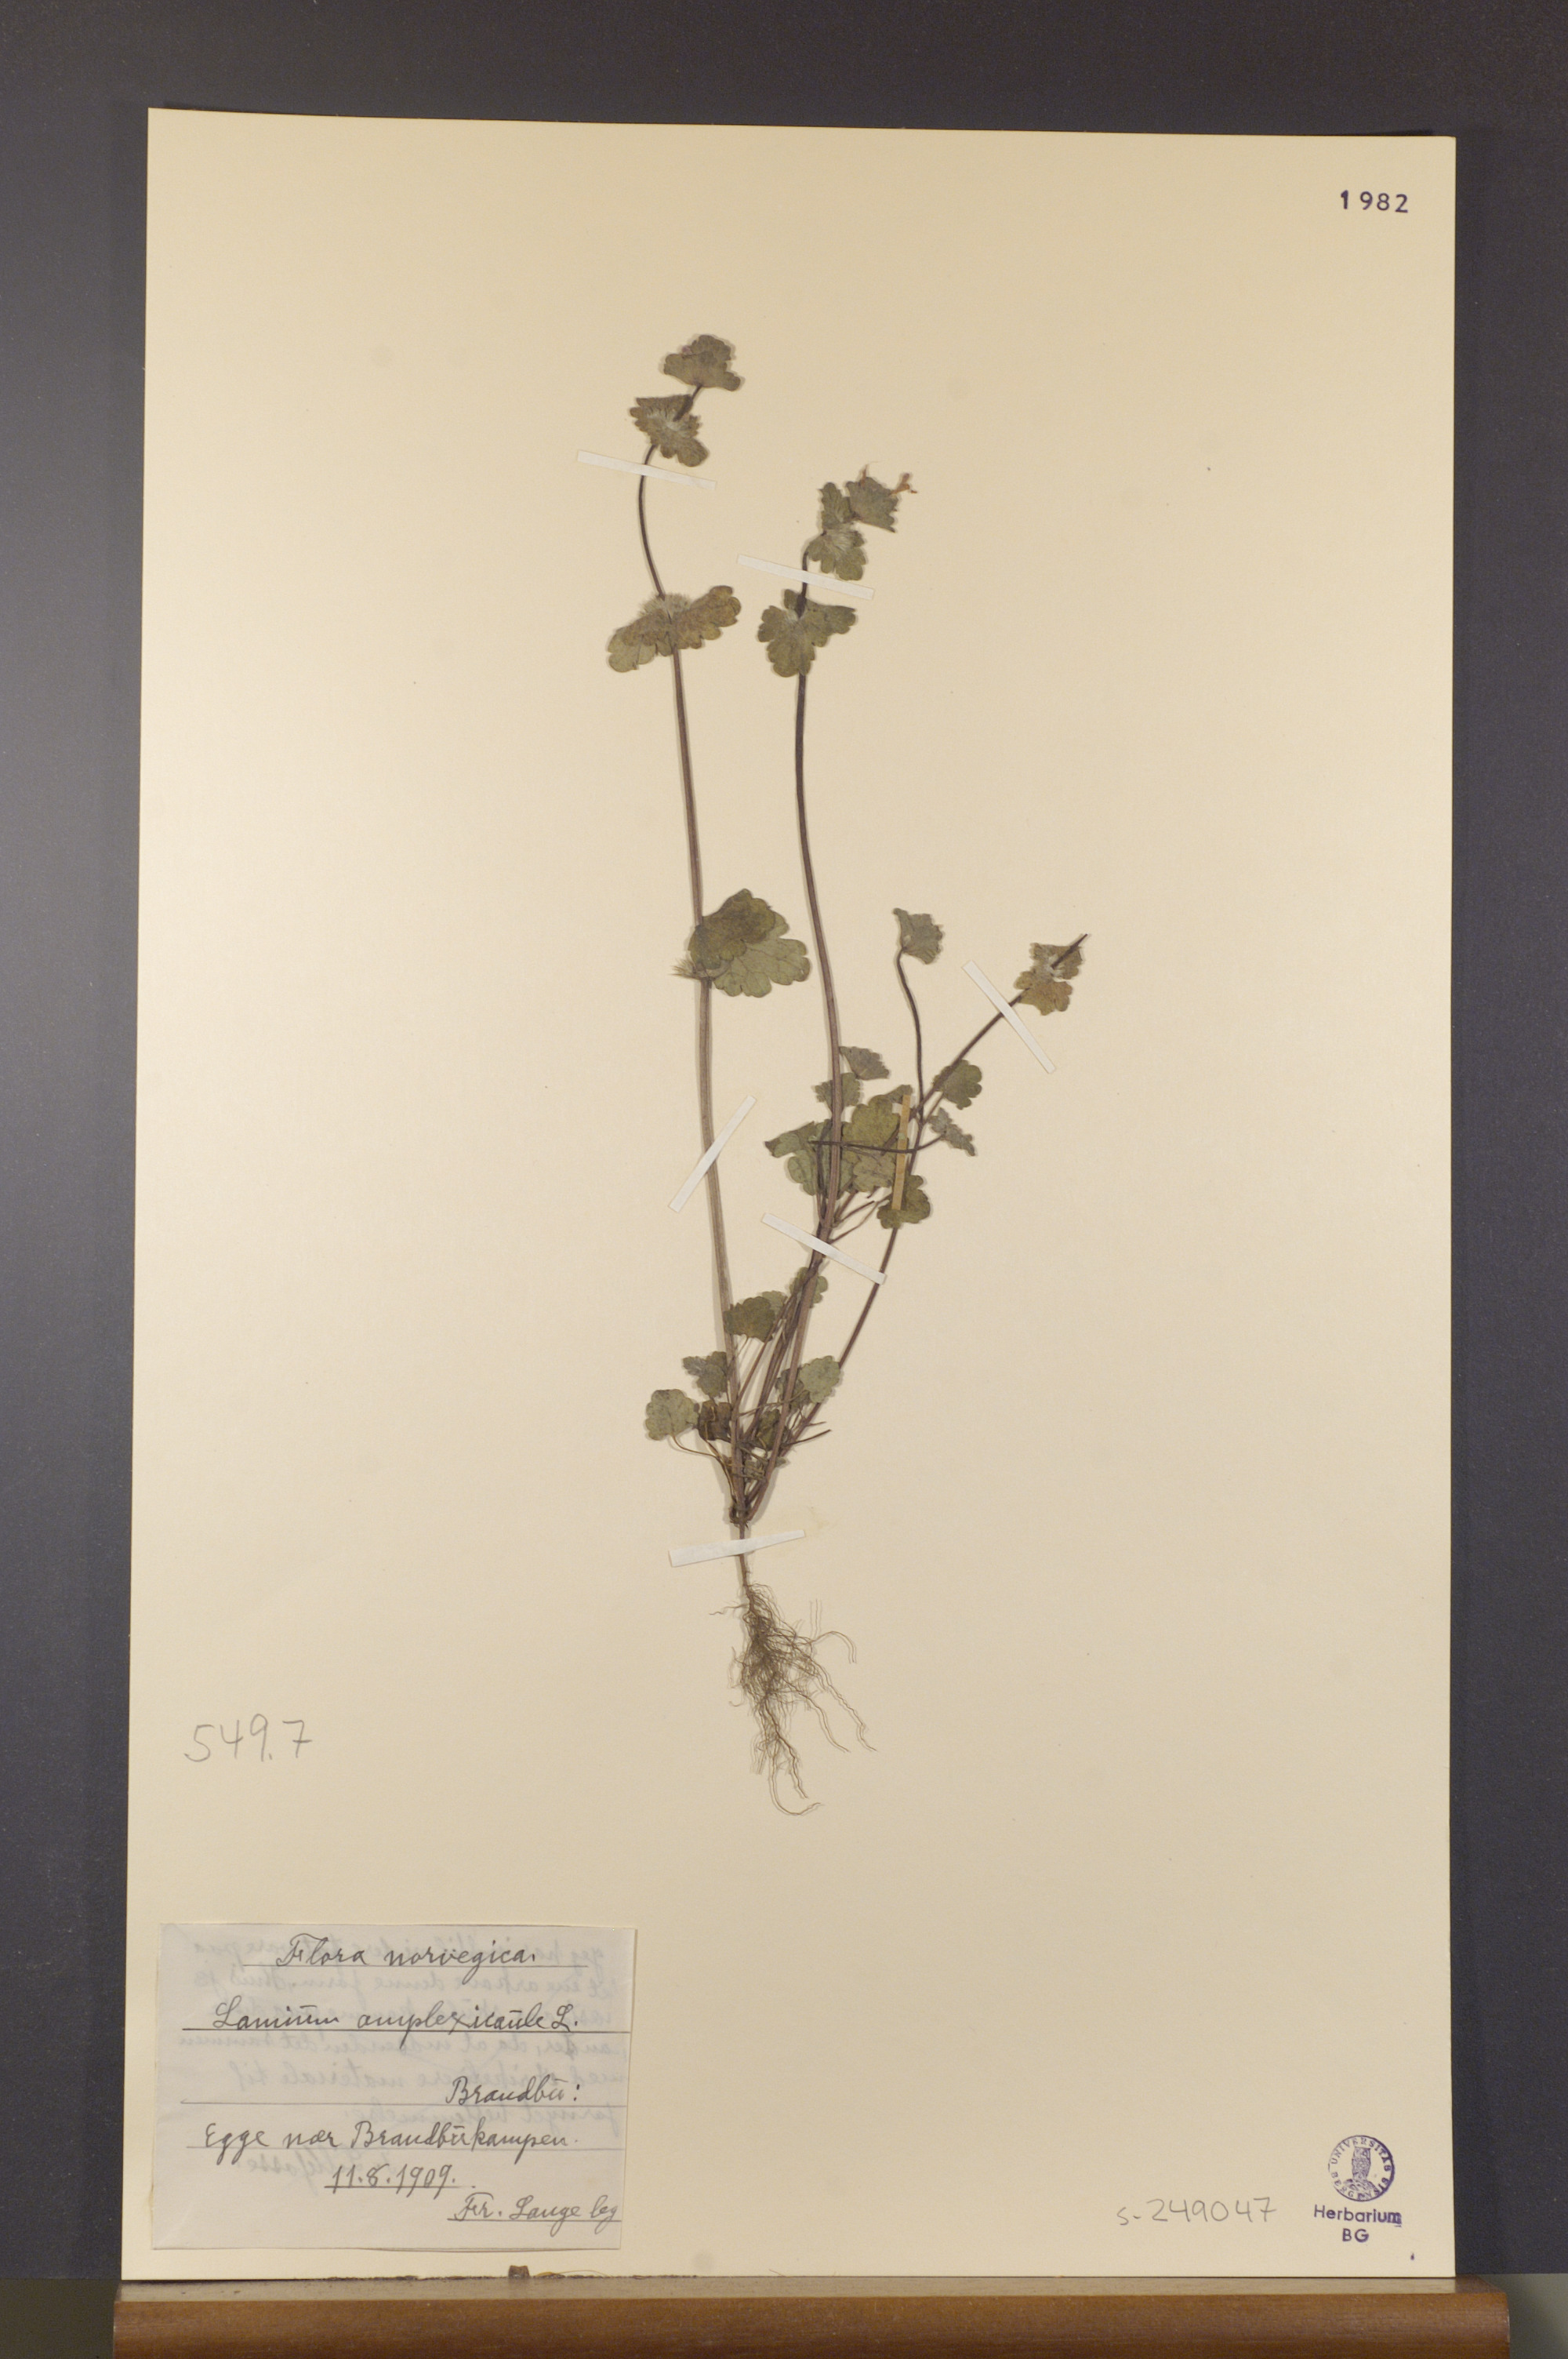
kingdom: Plantae
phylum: Tracheophyta
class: Magnoliopsida
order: Lamiales
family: Lamiaceae
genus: Lamium
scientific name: Lamium amplexicaule
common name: Henbit dead-nettle
